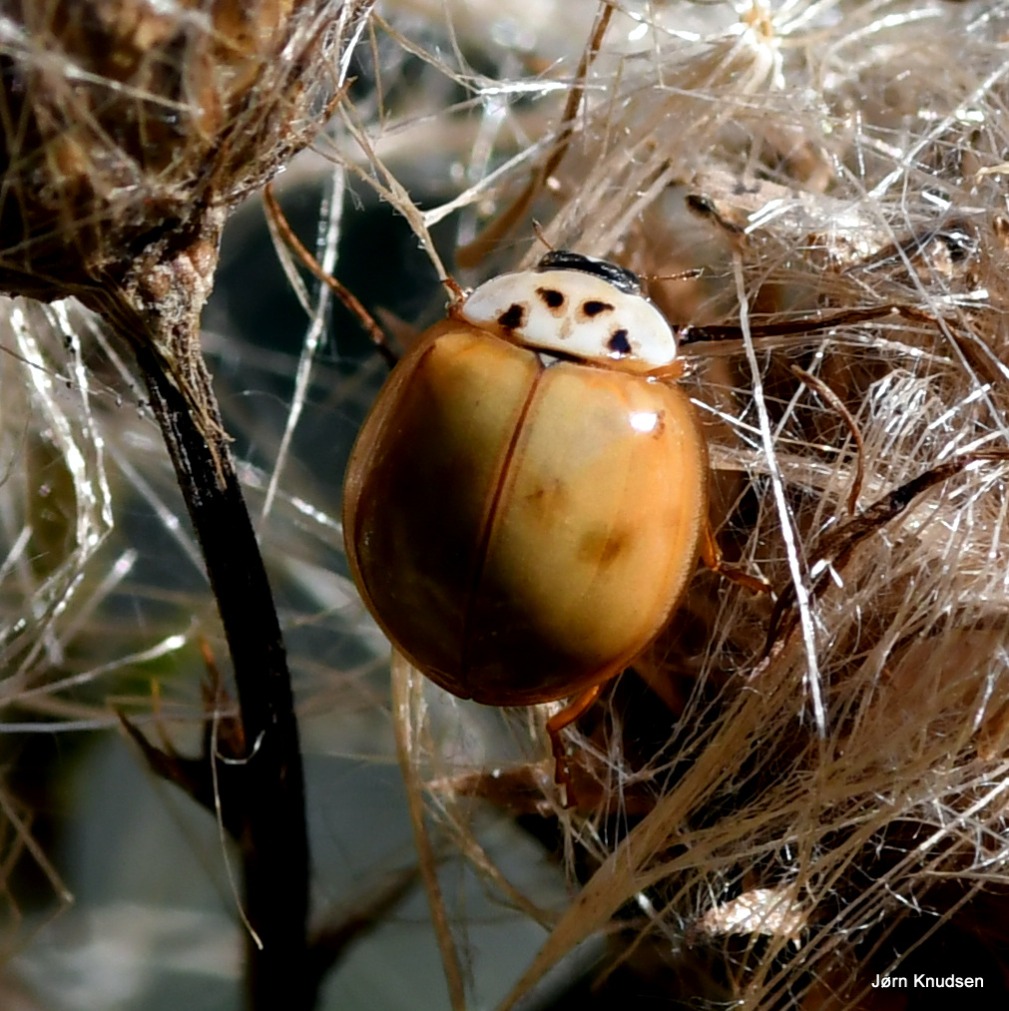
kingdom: Animalia
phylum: Arthropoda
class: Insecta
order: Coleoptera
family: Coccinellidae
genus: Adalia
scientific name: Adalia decempunctata
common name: Tiplettet mariehøne
